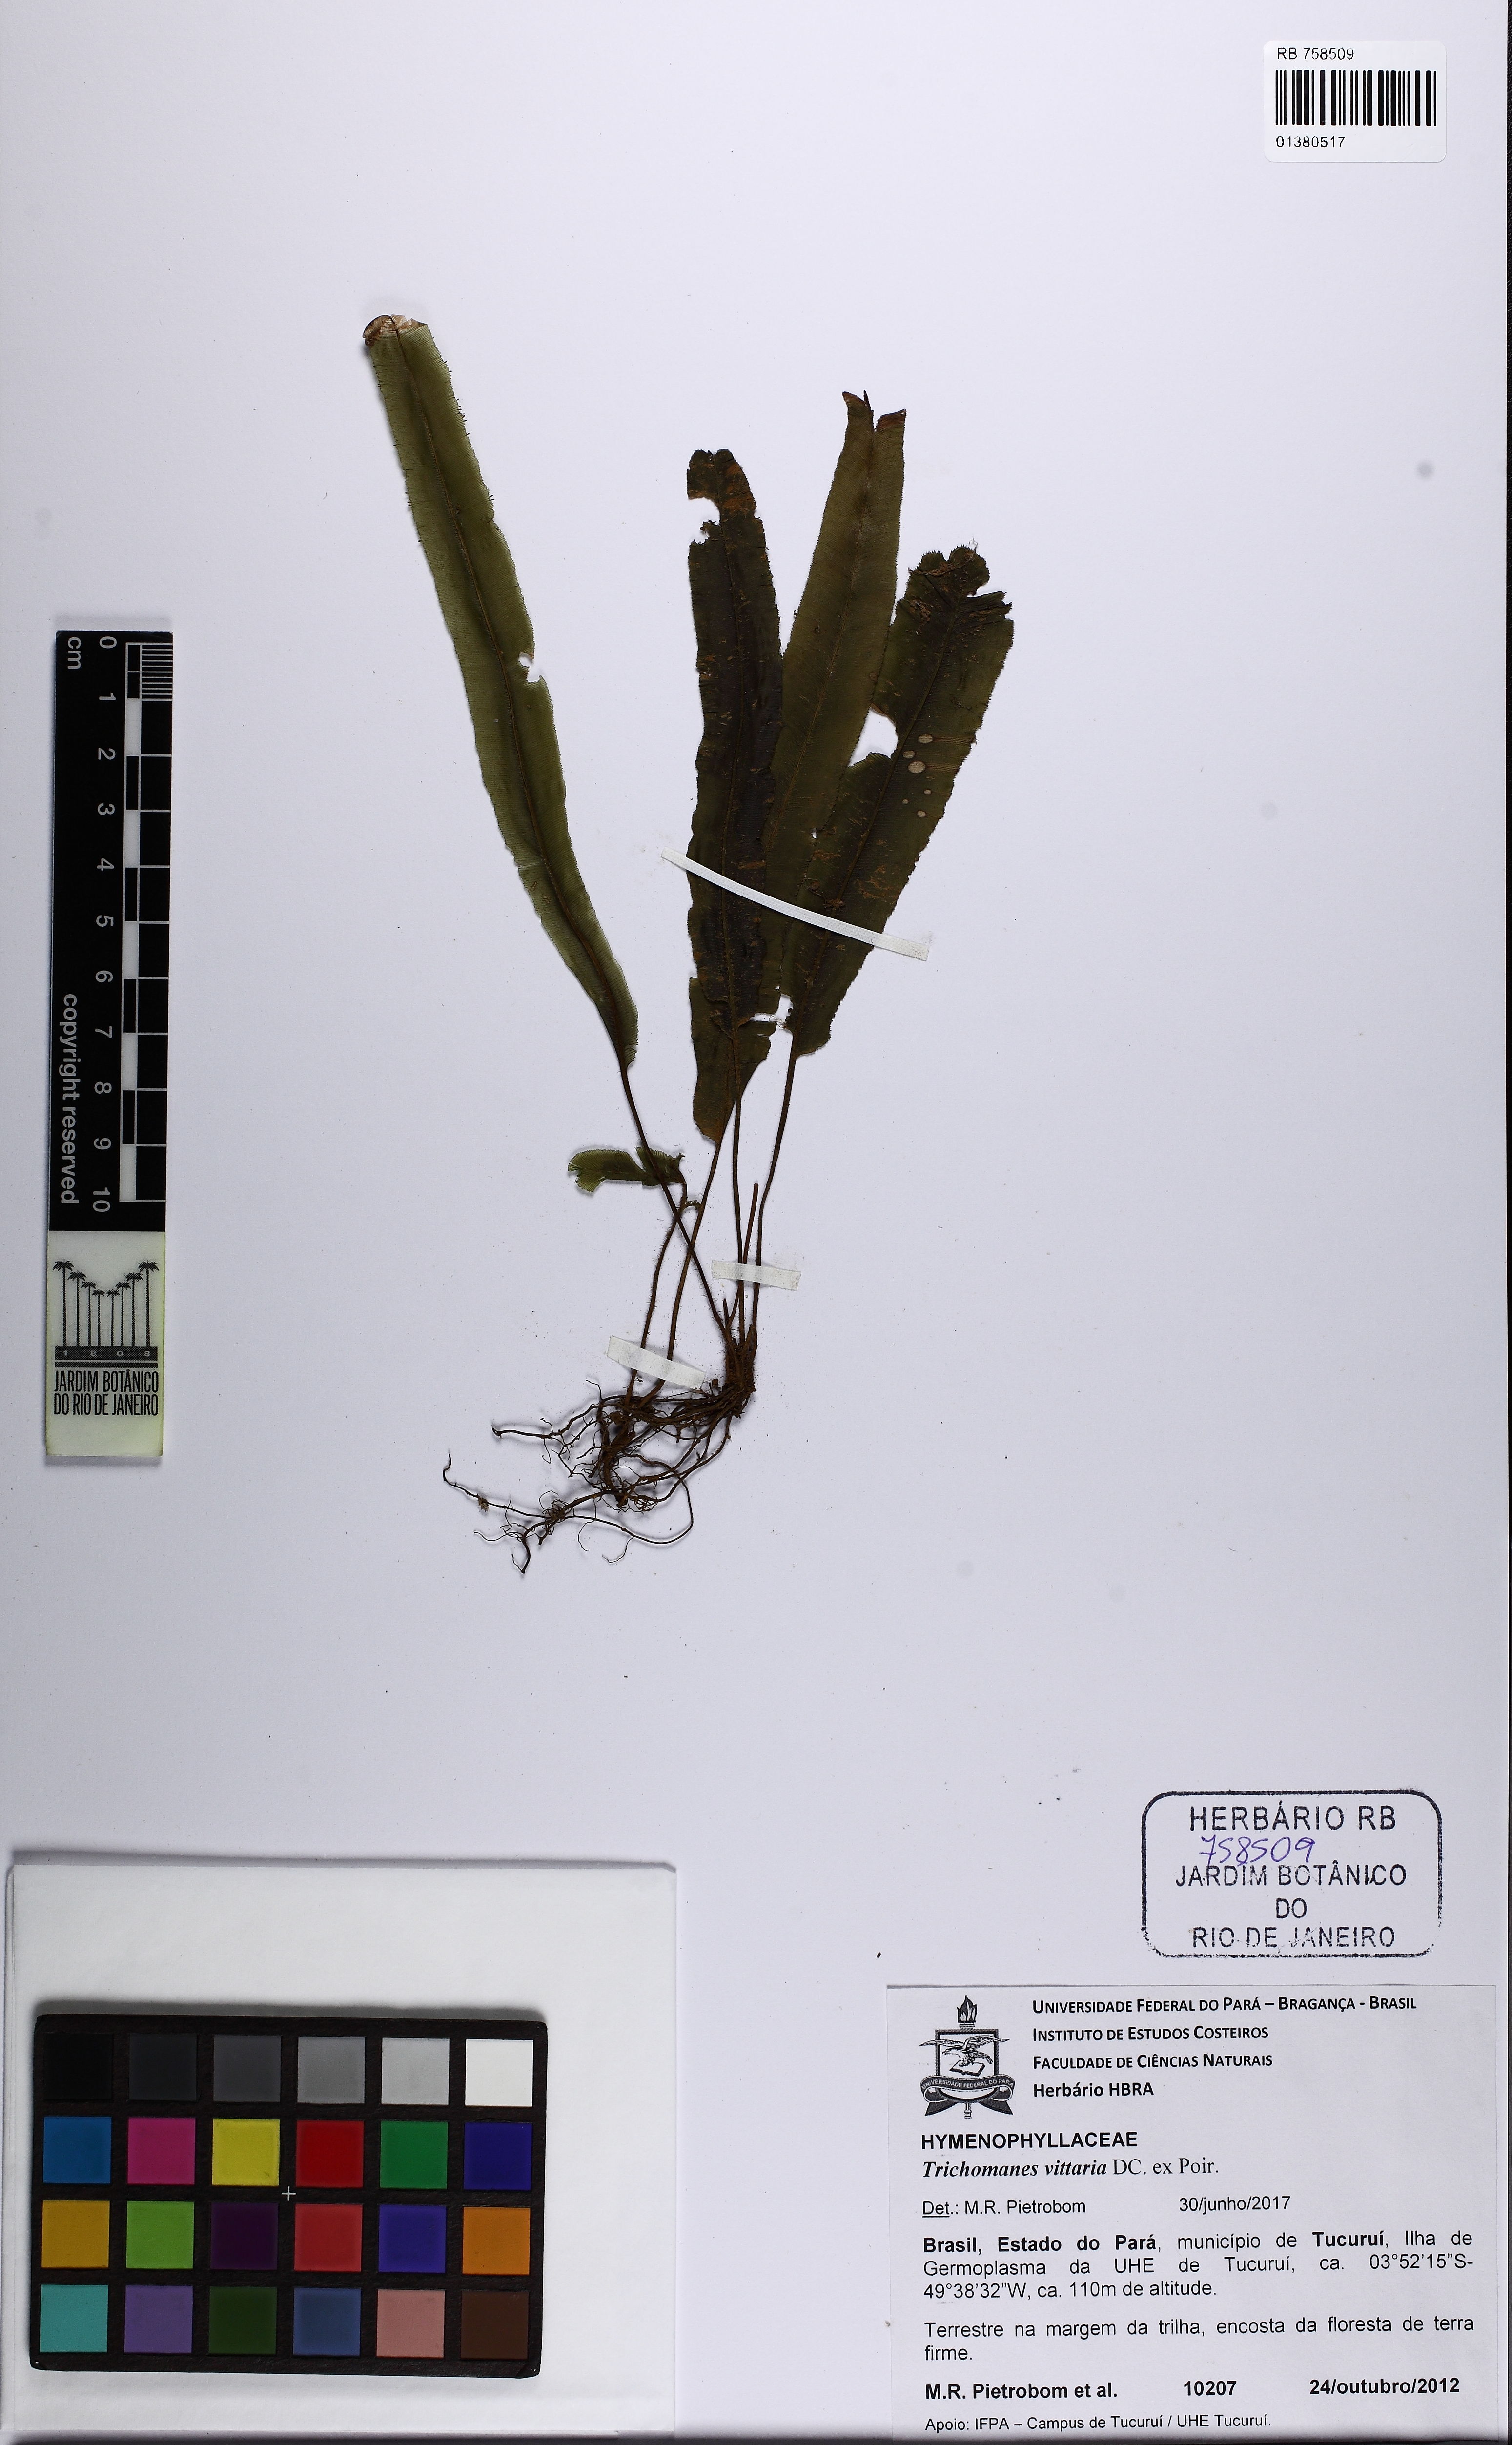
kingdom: Plantae
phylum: Tracheophyta
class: Polypodiopsida
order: Hymenophyllales
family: Hymenophyllaceae
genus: Trichomanes
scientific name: Trichomanes vittaria
